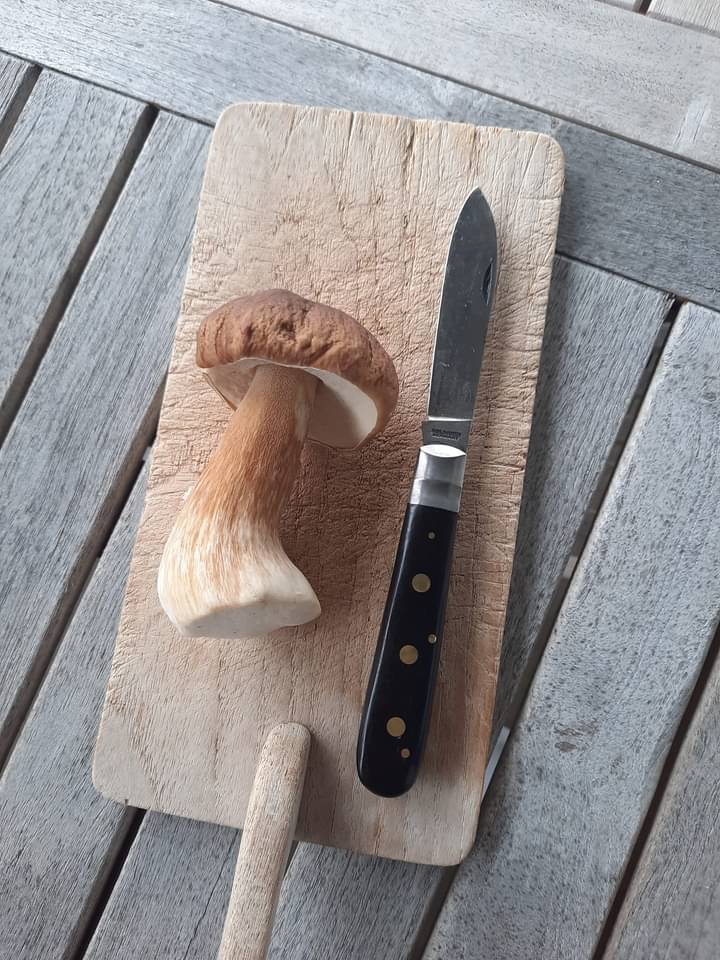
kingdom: Fungi
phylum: Basidiomycota
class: Agaricomycetes
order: Boletales
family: Boletaceae
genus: Boletus
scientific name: Boletus edulis
